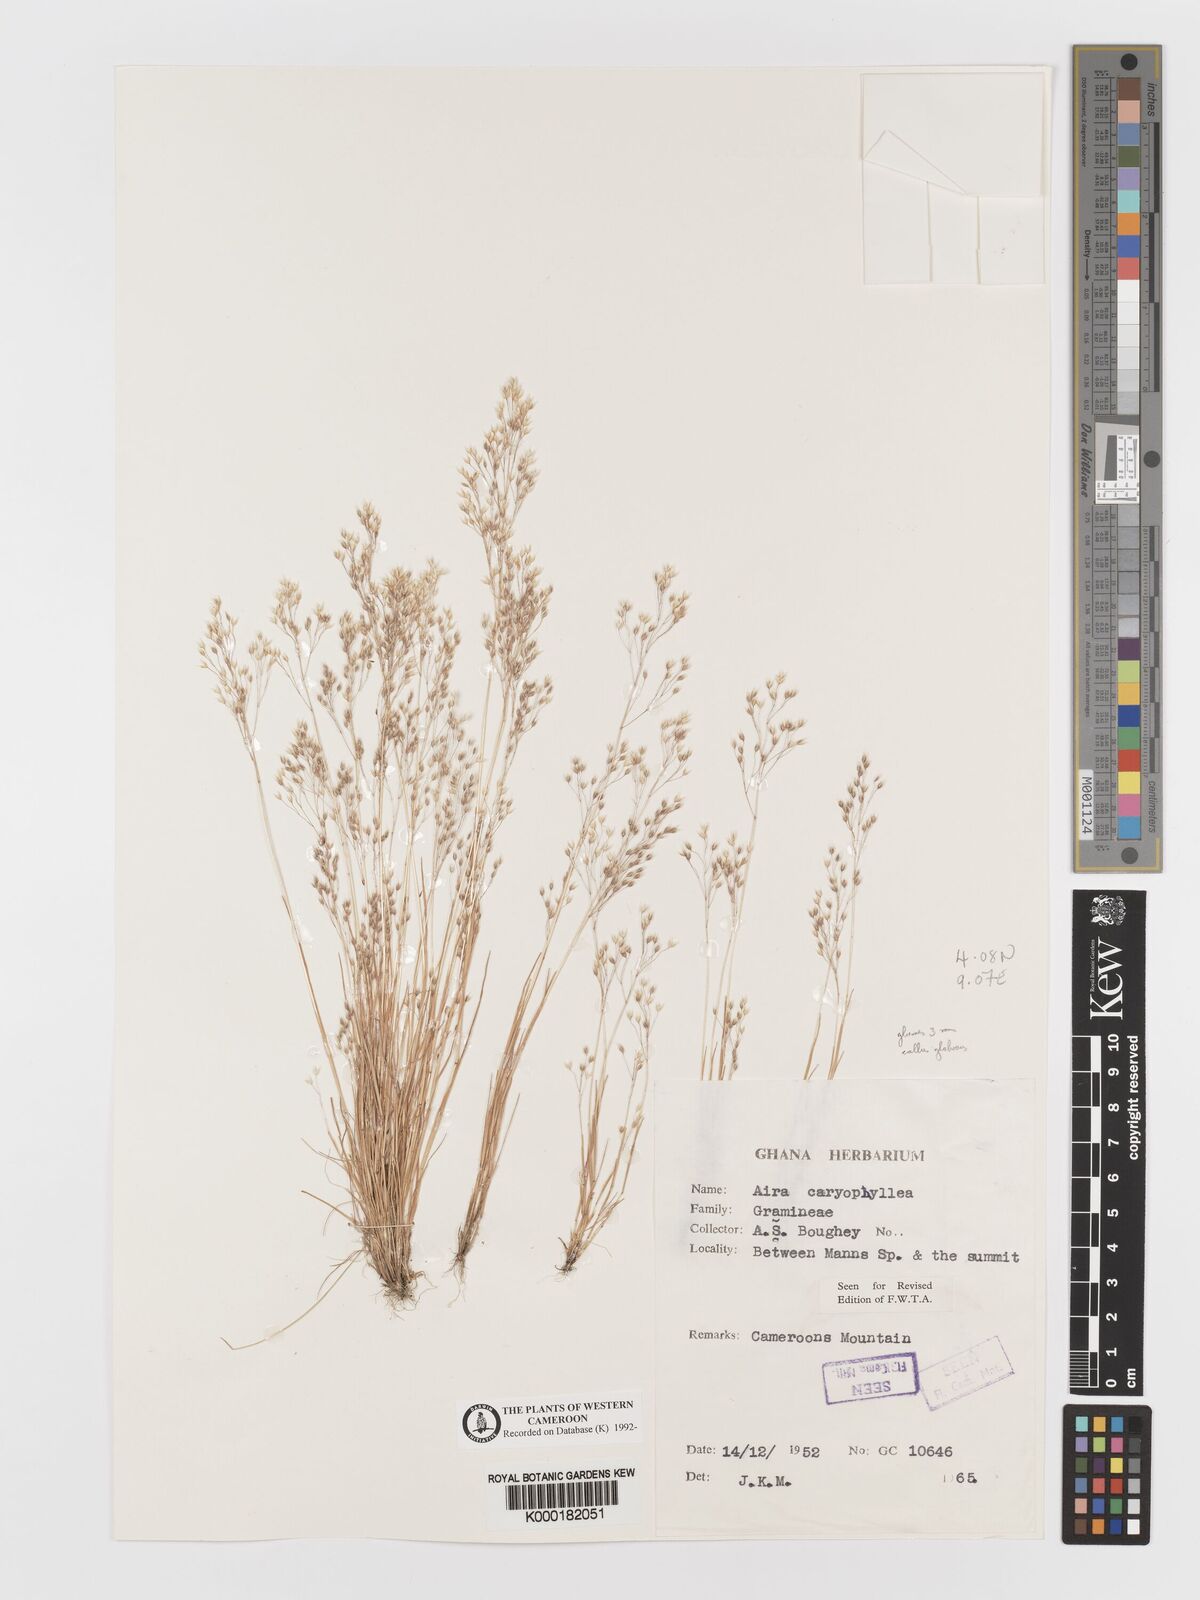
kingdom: Plantae
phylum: Tracheophyta
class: Liliopsida
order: Poales
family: Poaceae
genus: Aira
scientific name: Aira caryophyllea
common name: Silver hairgrass
